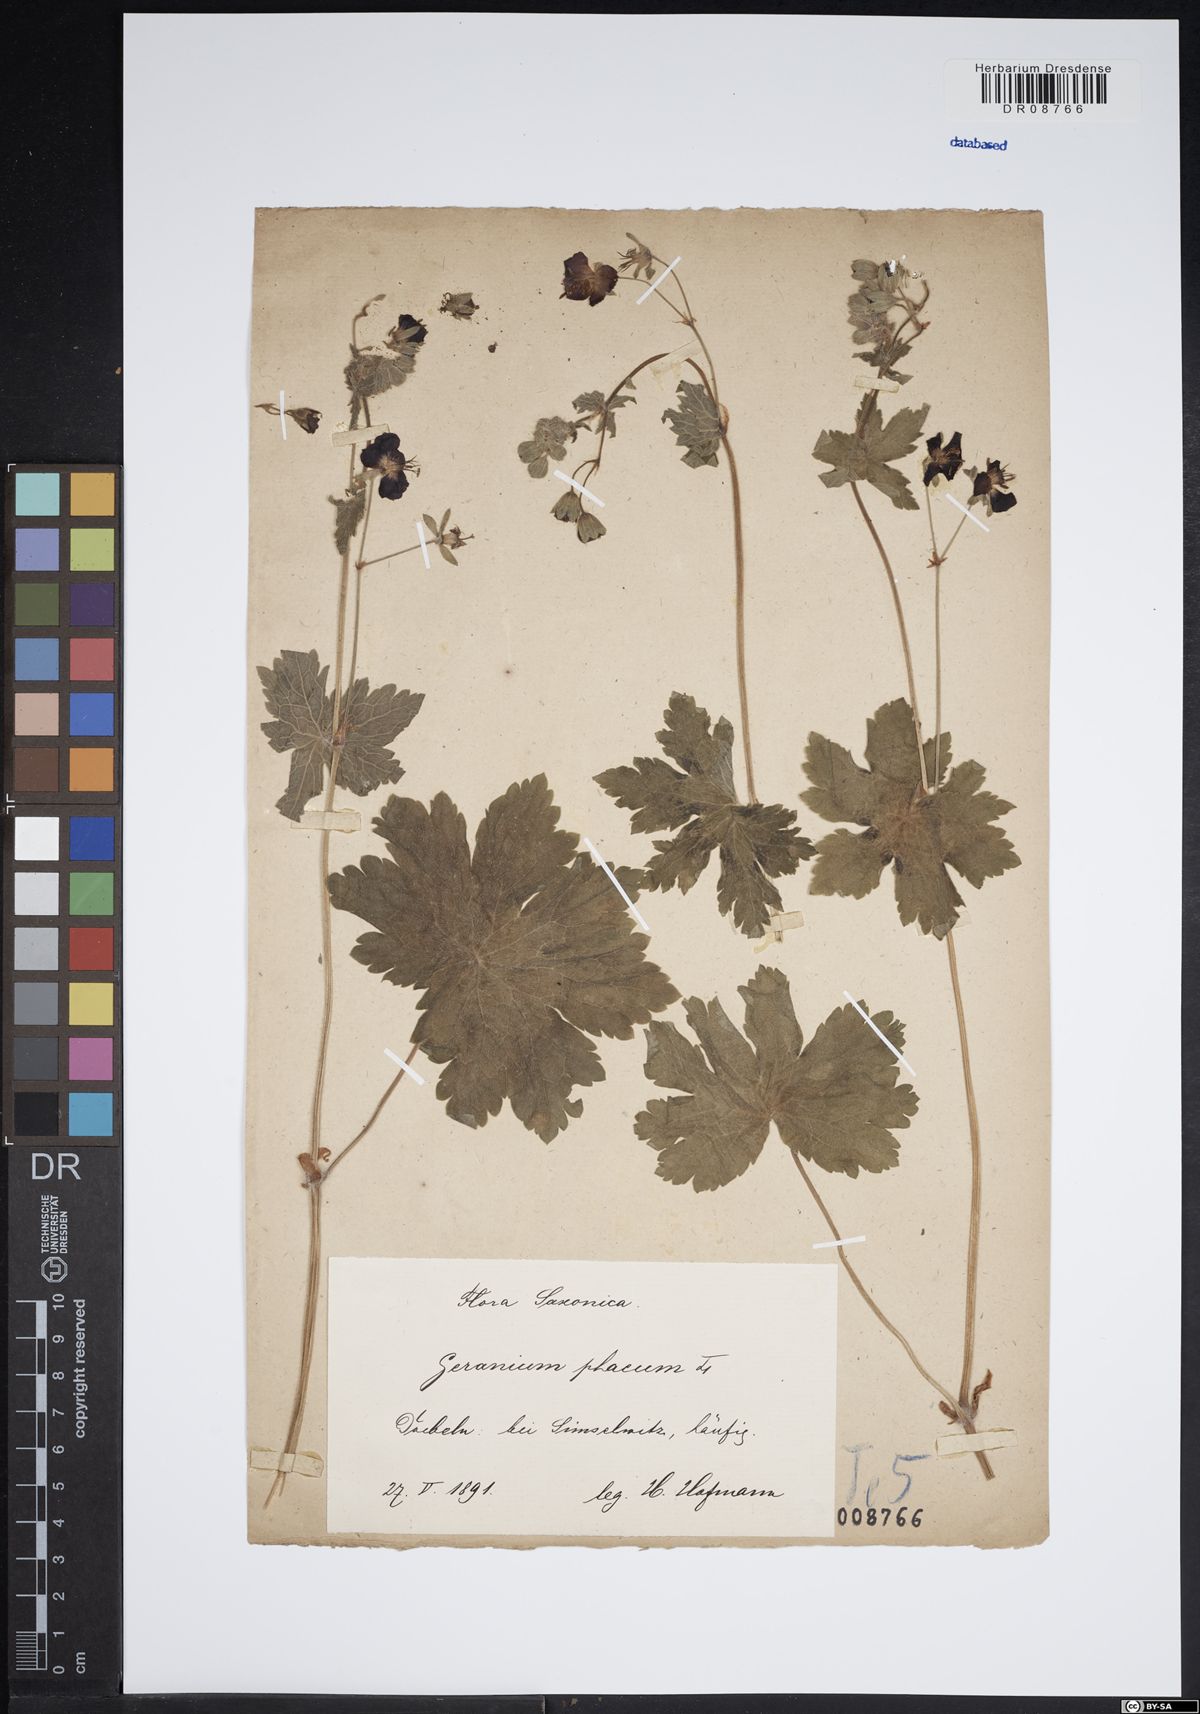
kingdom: Plantae
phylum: Tracheophyta
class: Magnoliopsida
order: Geraniales
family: Geraniaceae
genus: Geranium
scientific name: Geranium phaeum
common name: Dusky crane's-bill
